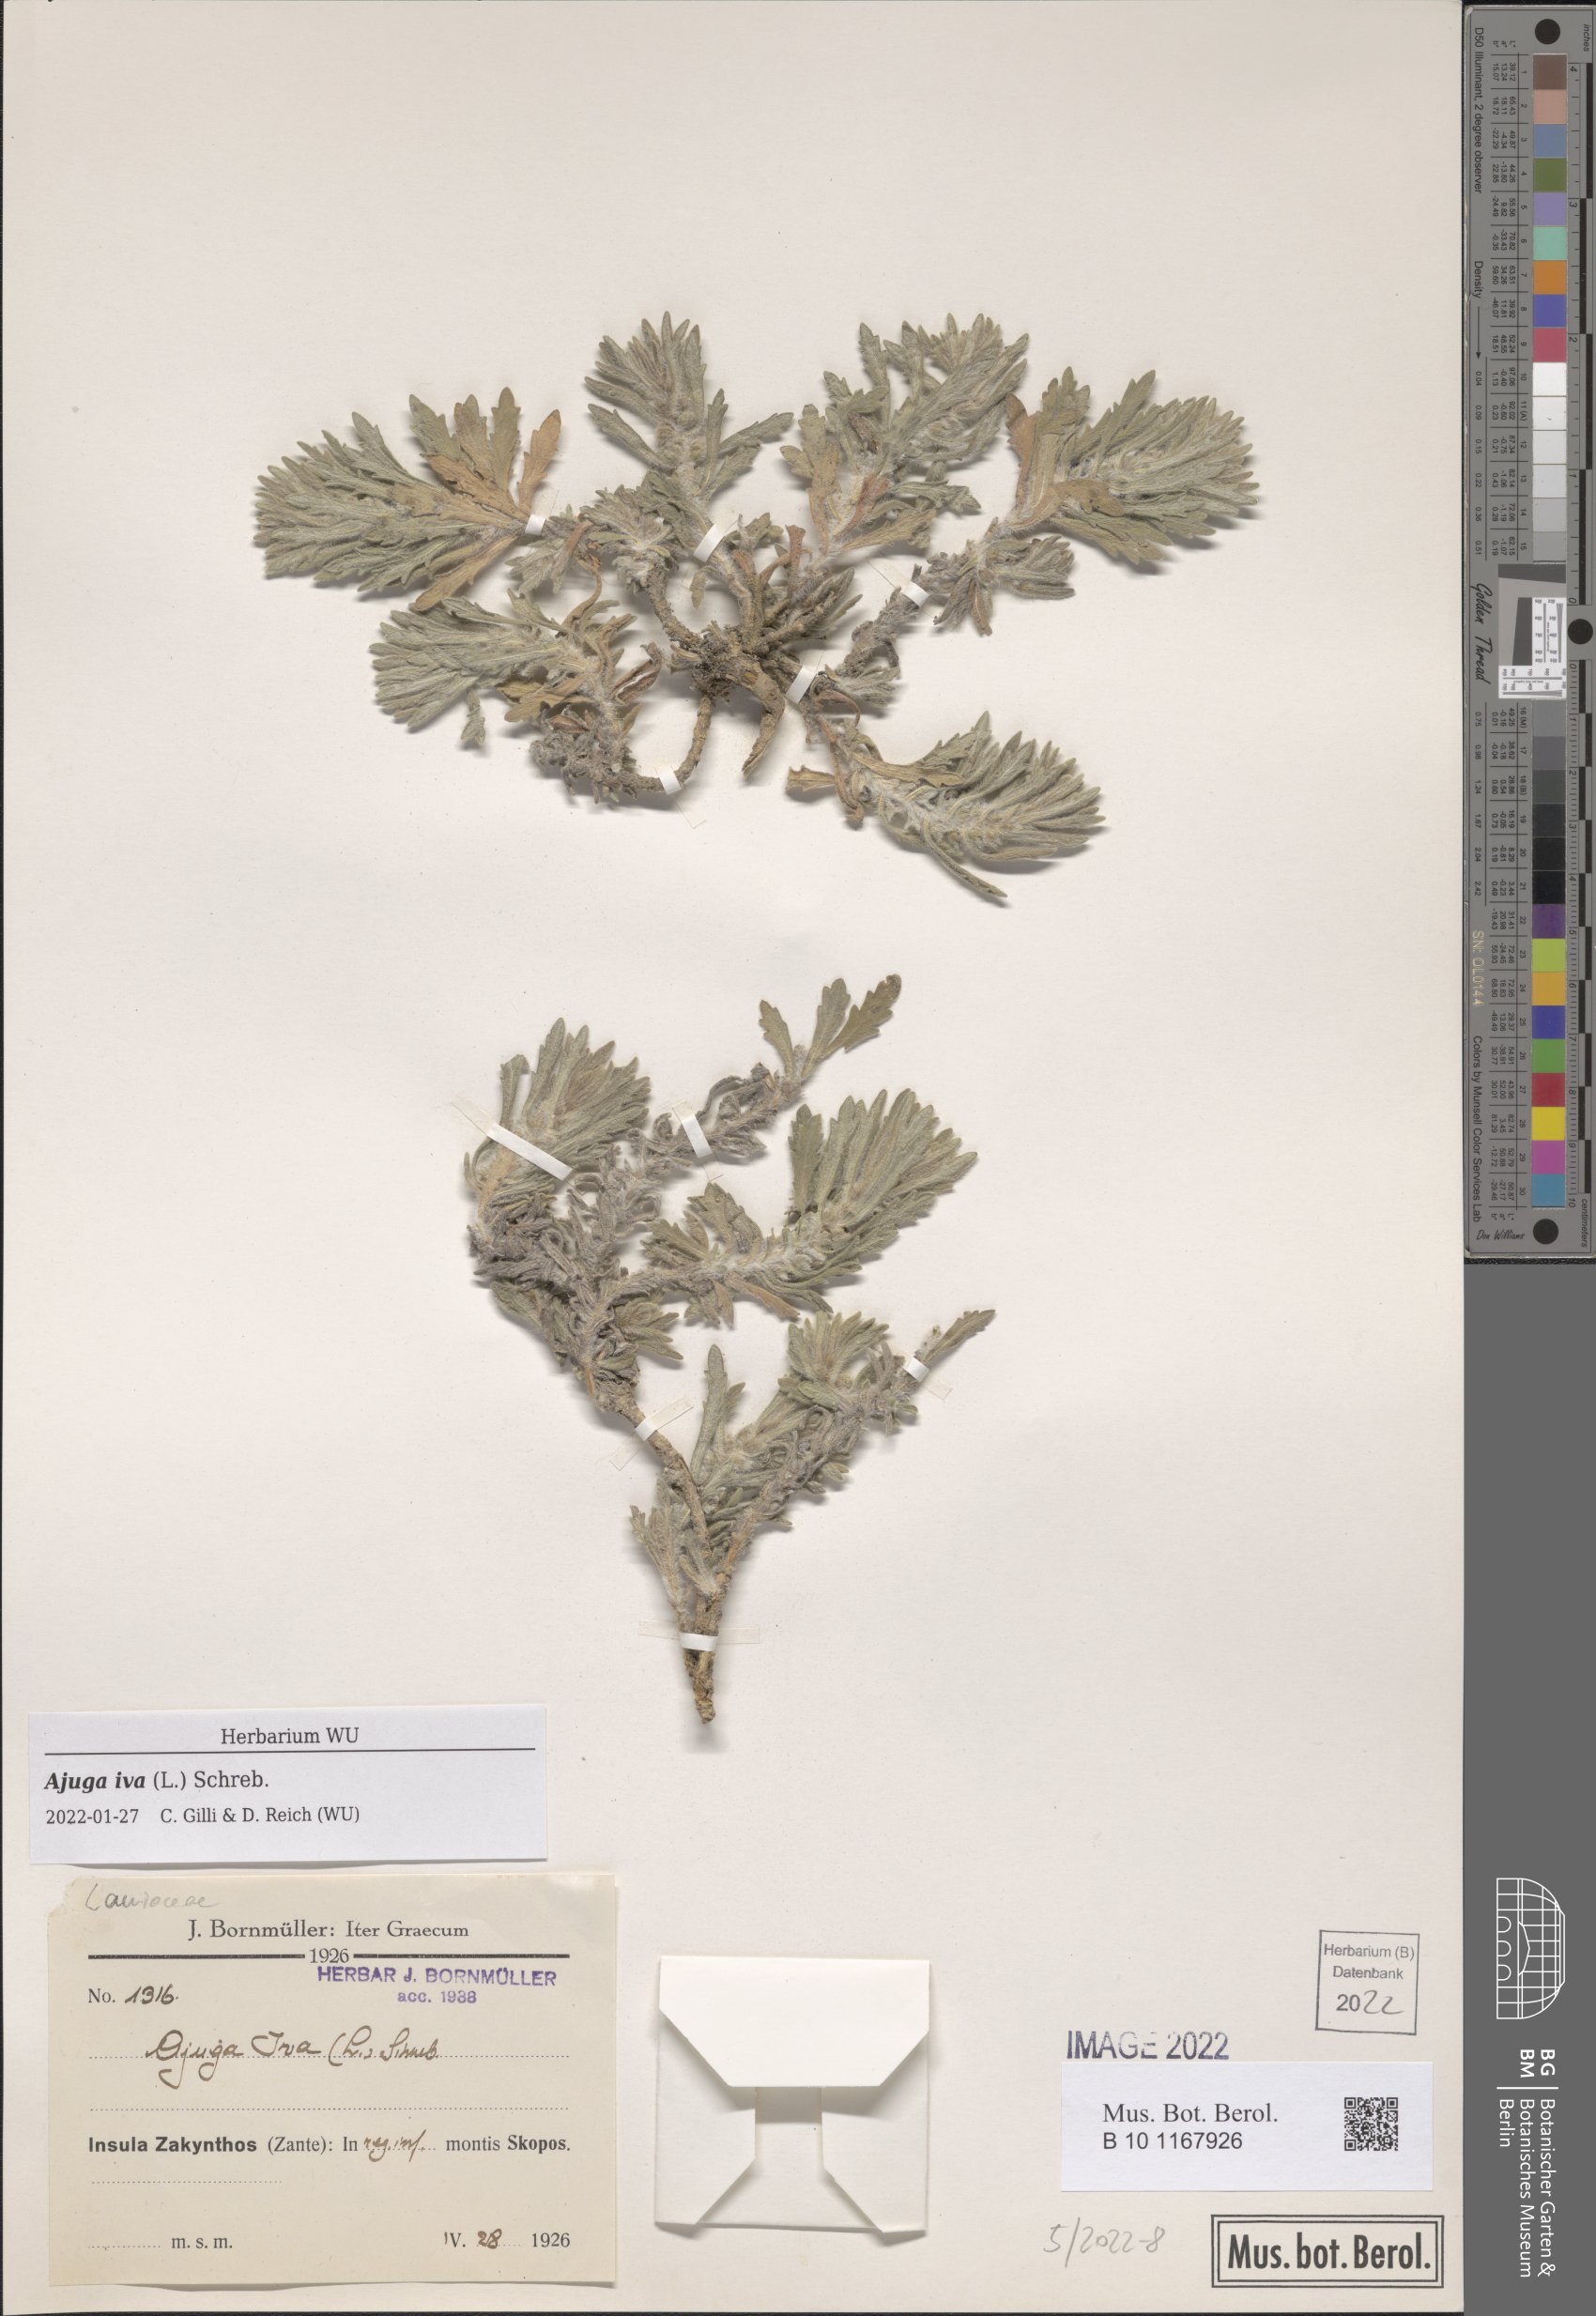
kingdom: Plantae
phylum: Tracheophyta
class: Magnoliopsida
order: Lamiales
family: Lamiaceae
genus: Ajuga
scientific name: Ajuga iva
